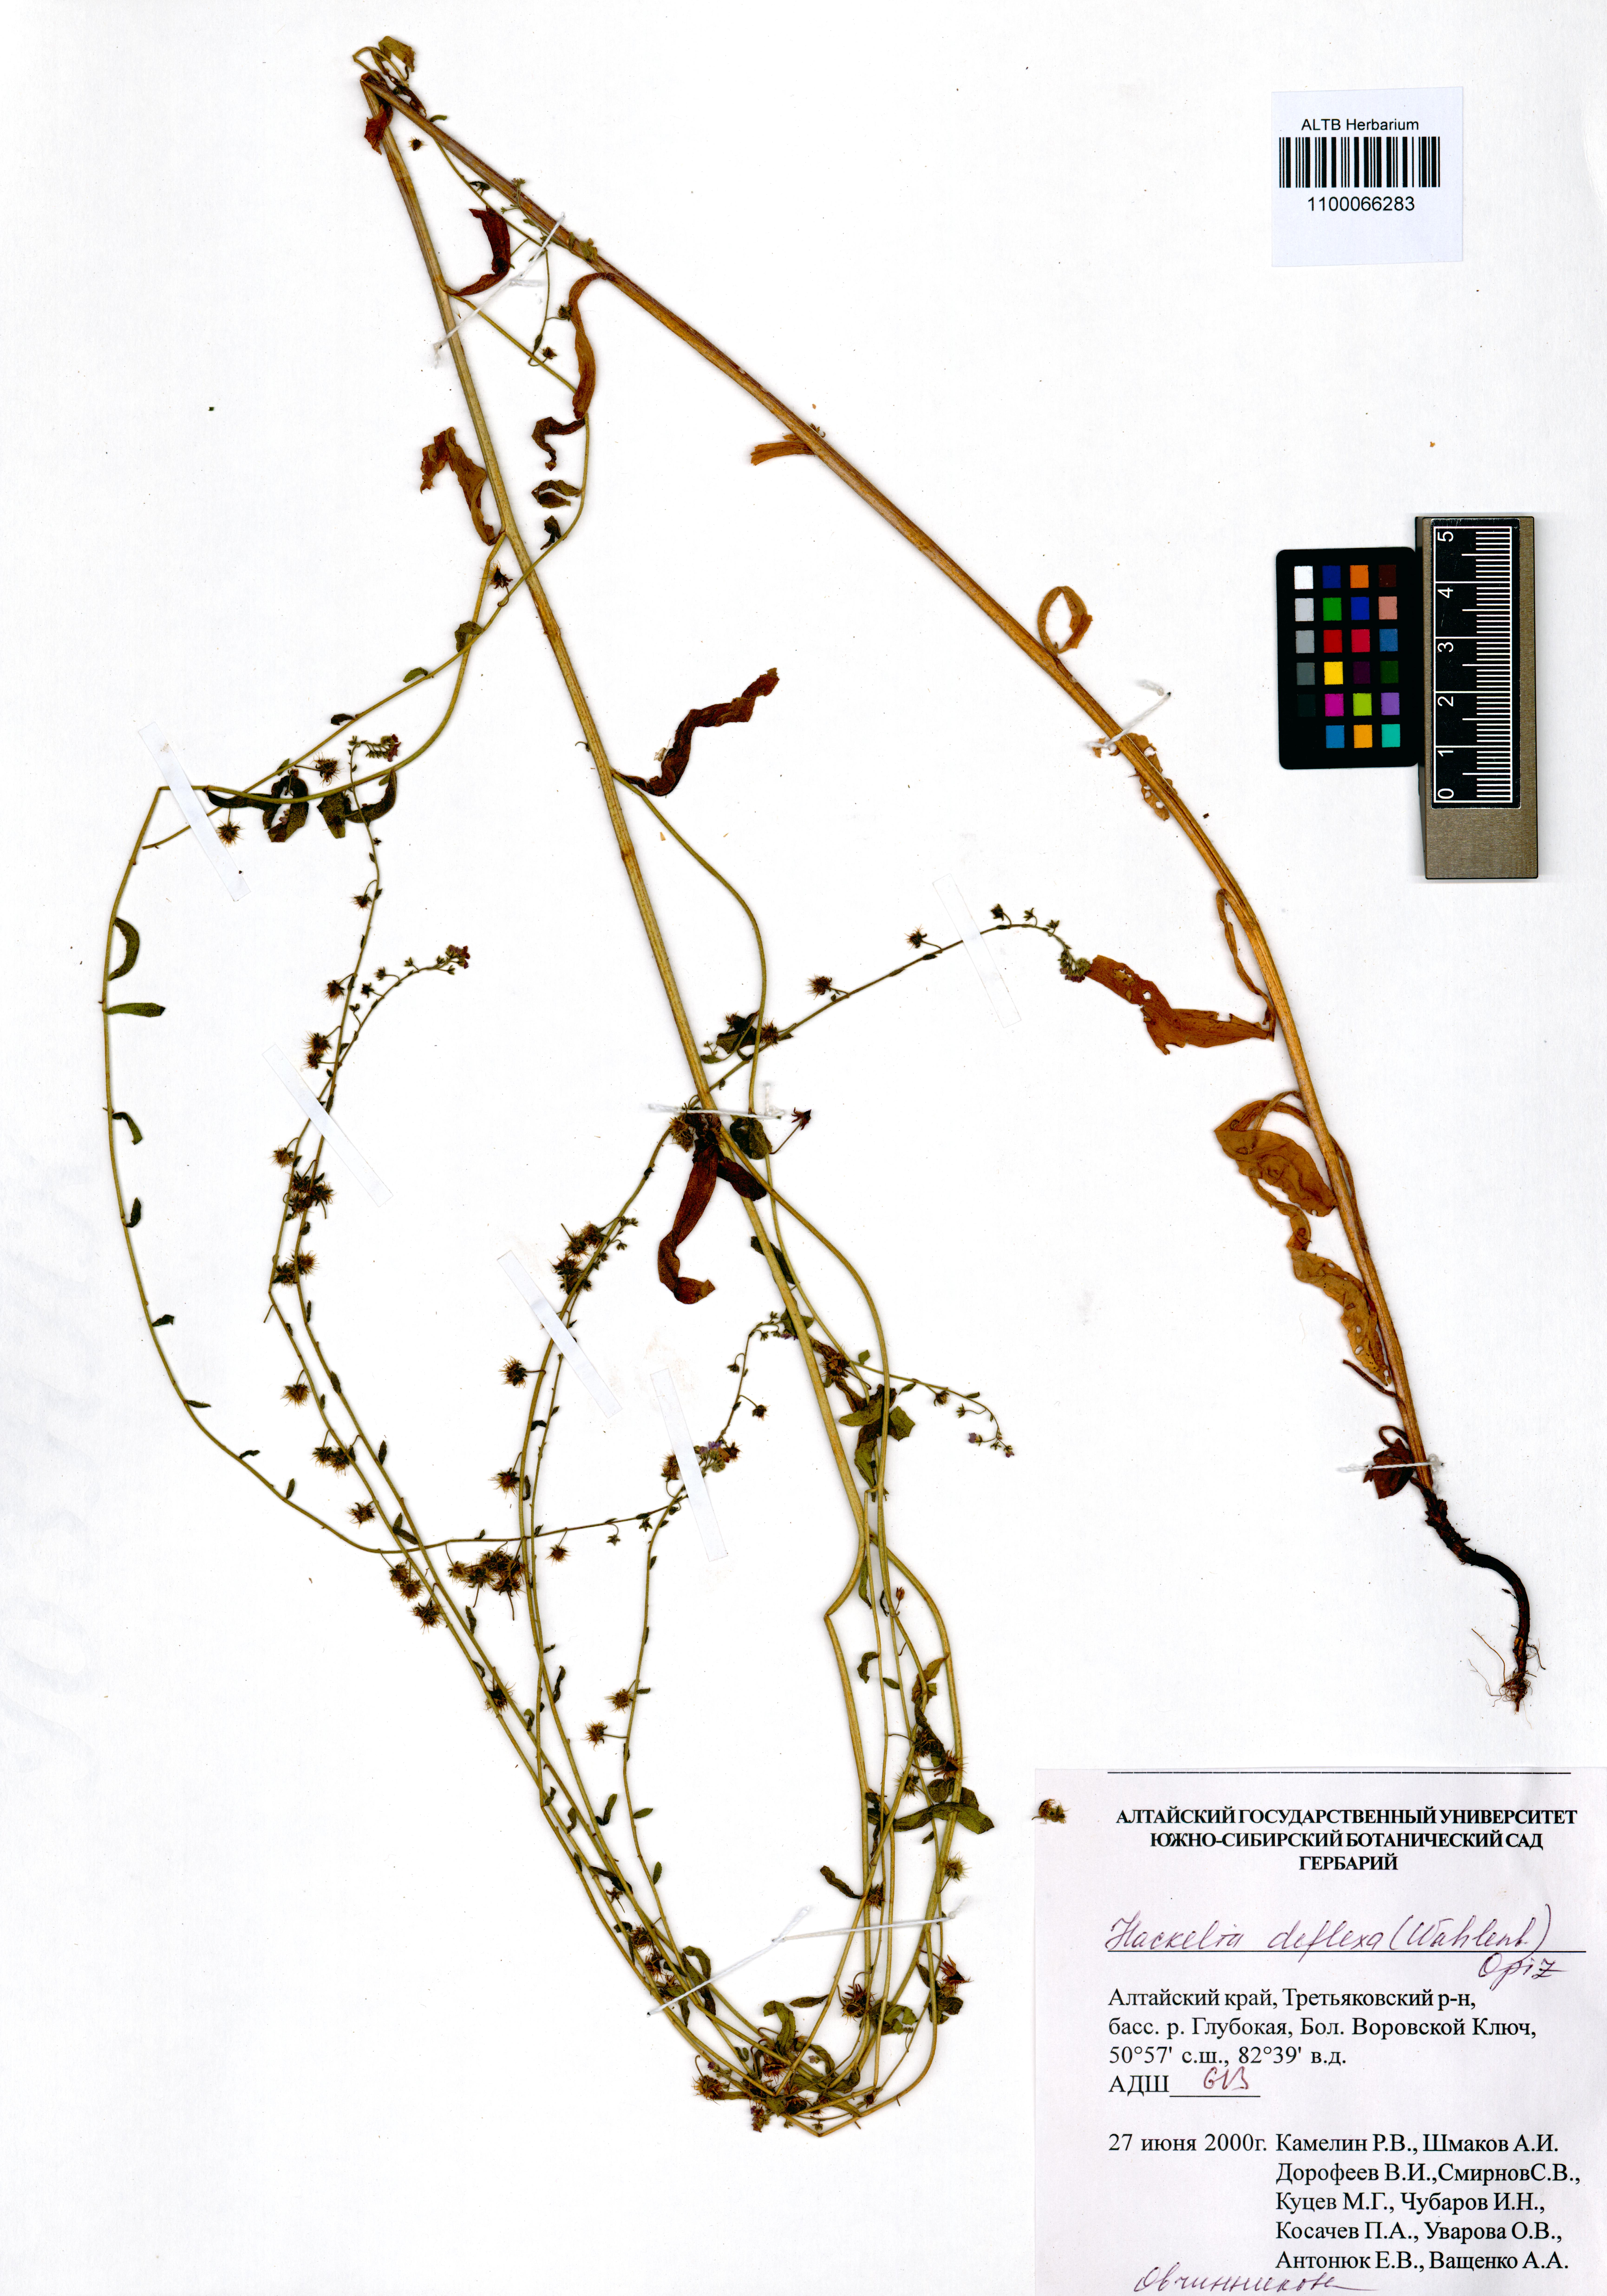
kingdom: Plantae
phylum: Tracheophyta
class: Magnoliopsida
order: Boraginales
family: Boraginaceae
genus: Hackelia
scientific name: Hackelia deflexa
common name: Nodding stickseed
